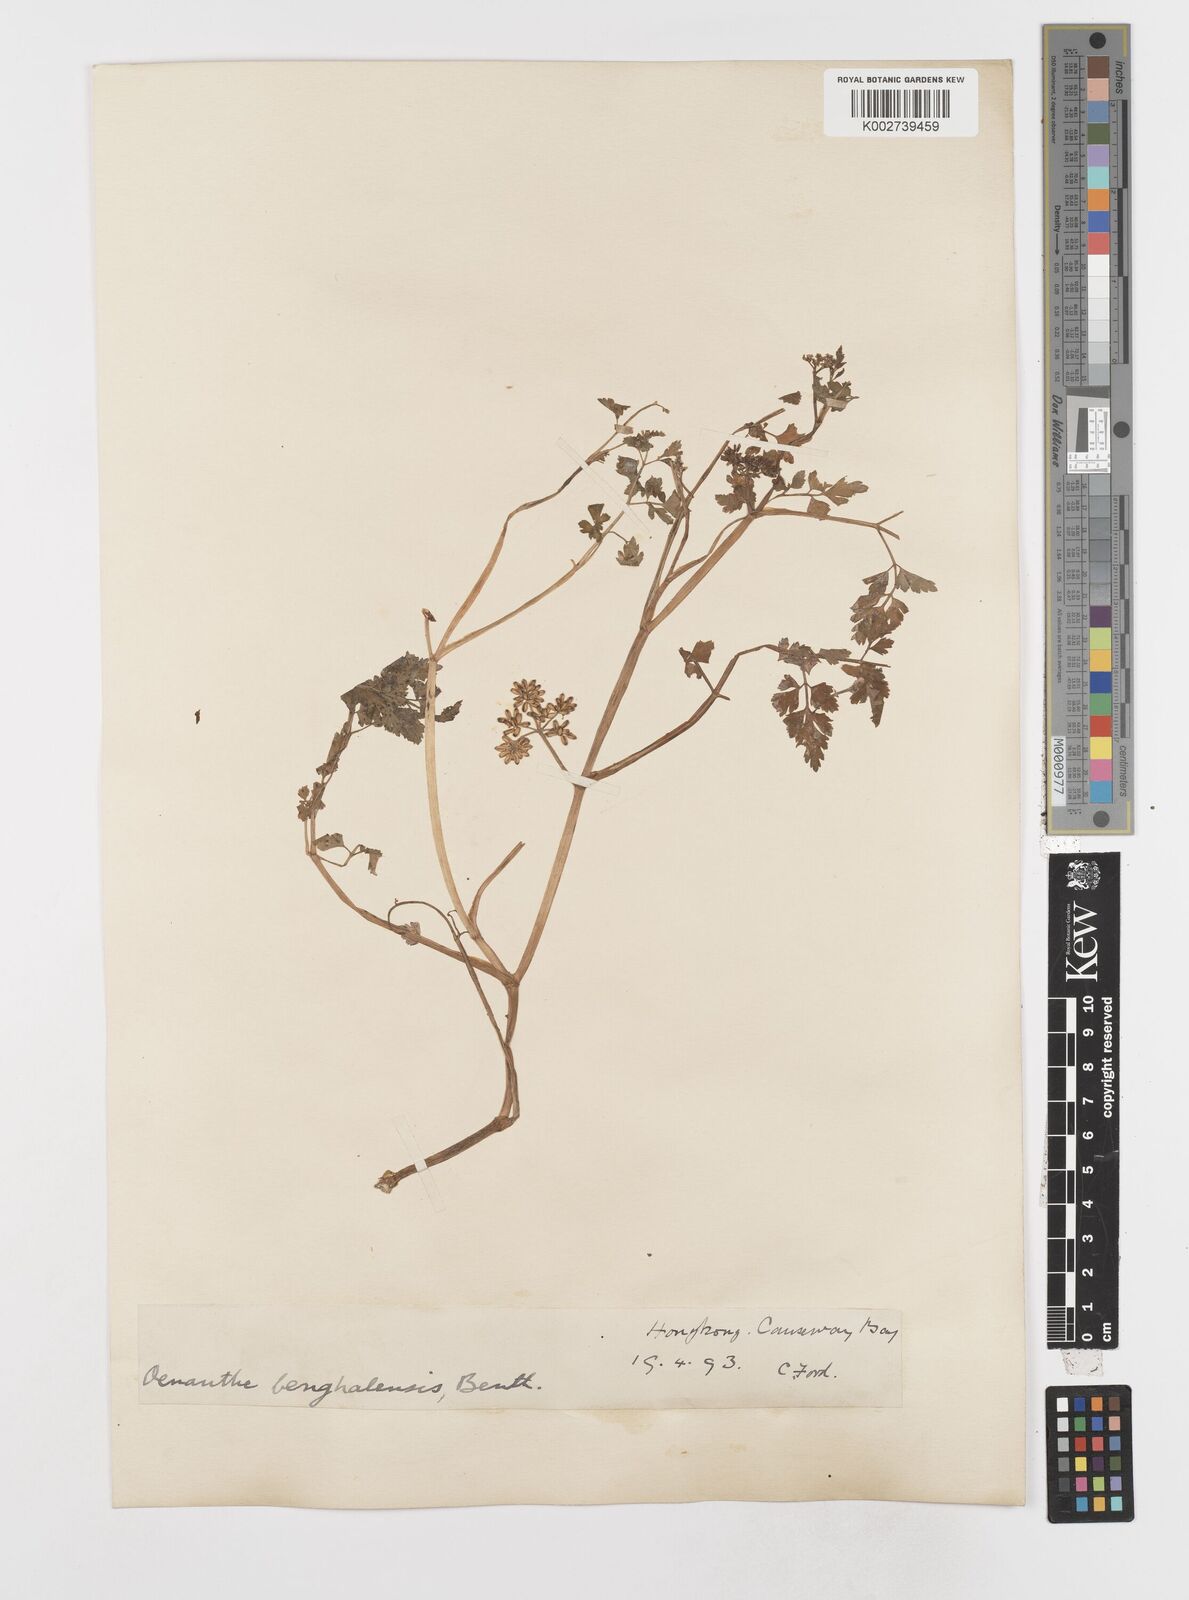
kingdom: Plantae
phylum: Tracheophyta
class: Magnoliopsida
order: Apiales
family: Apiaceae
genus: Oenanthe
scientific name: Oenanthe javanica
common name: Java water-dropwort
